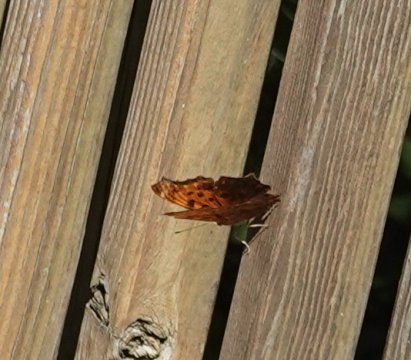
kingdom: Animalia
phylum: Arthropoda
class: Insecta
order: Lepidoptera
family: Nymphalidae
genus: Polygonia
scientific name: Polygonia comma
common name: Eastern Comma
